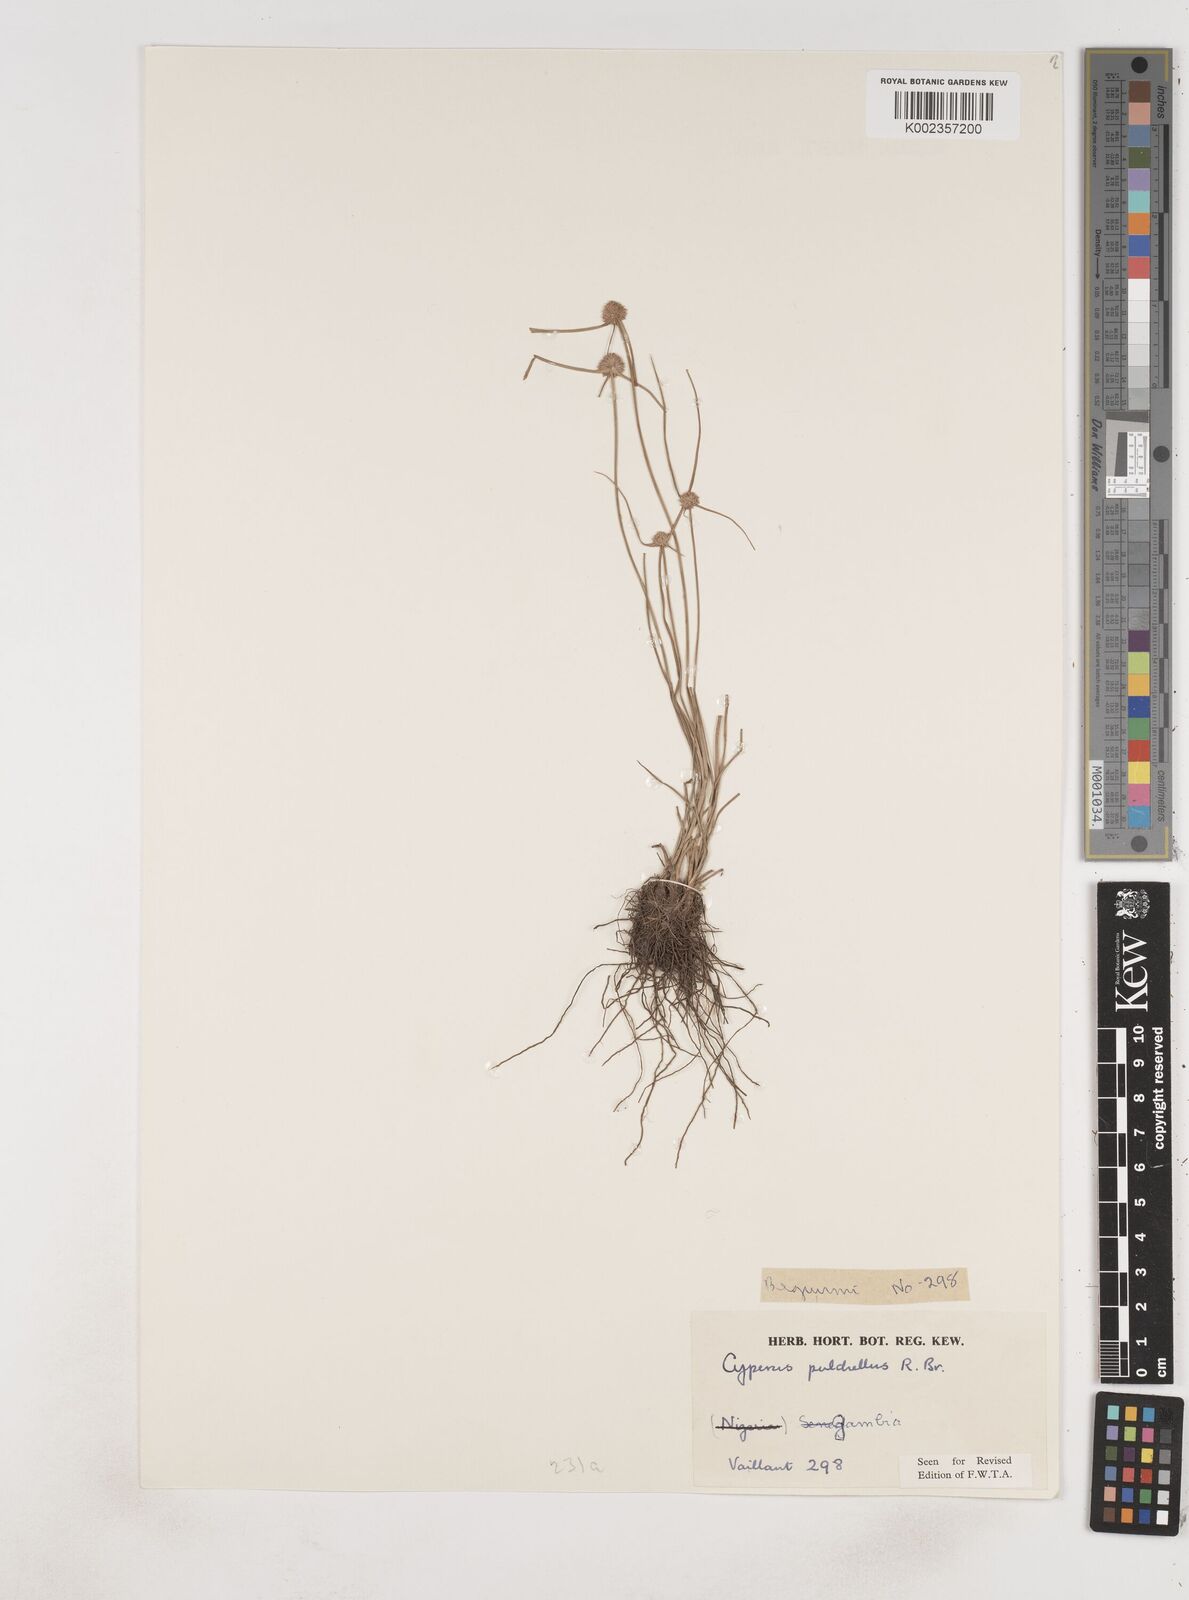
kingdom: Plantae
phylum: Tracheophyta
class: Liliopsida
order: Poales
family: Cyperaceae
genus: Cyperus
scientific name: Cyperus pulchellus
